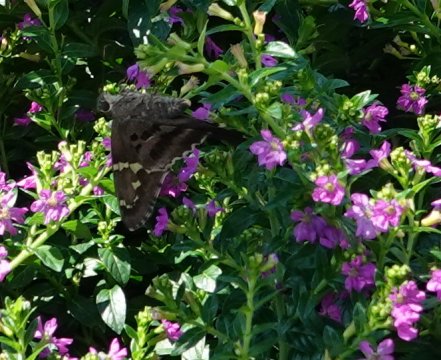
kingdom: Animalia
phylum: Arthropoda
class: Insecta
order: Lepidoptera
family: Hesperiidae
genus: Urbanus
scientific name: Urbanus proteus
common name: Long-tailed Skipper
